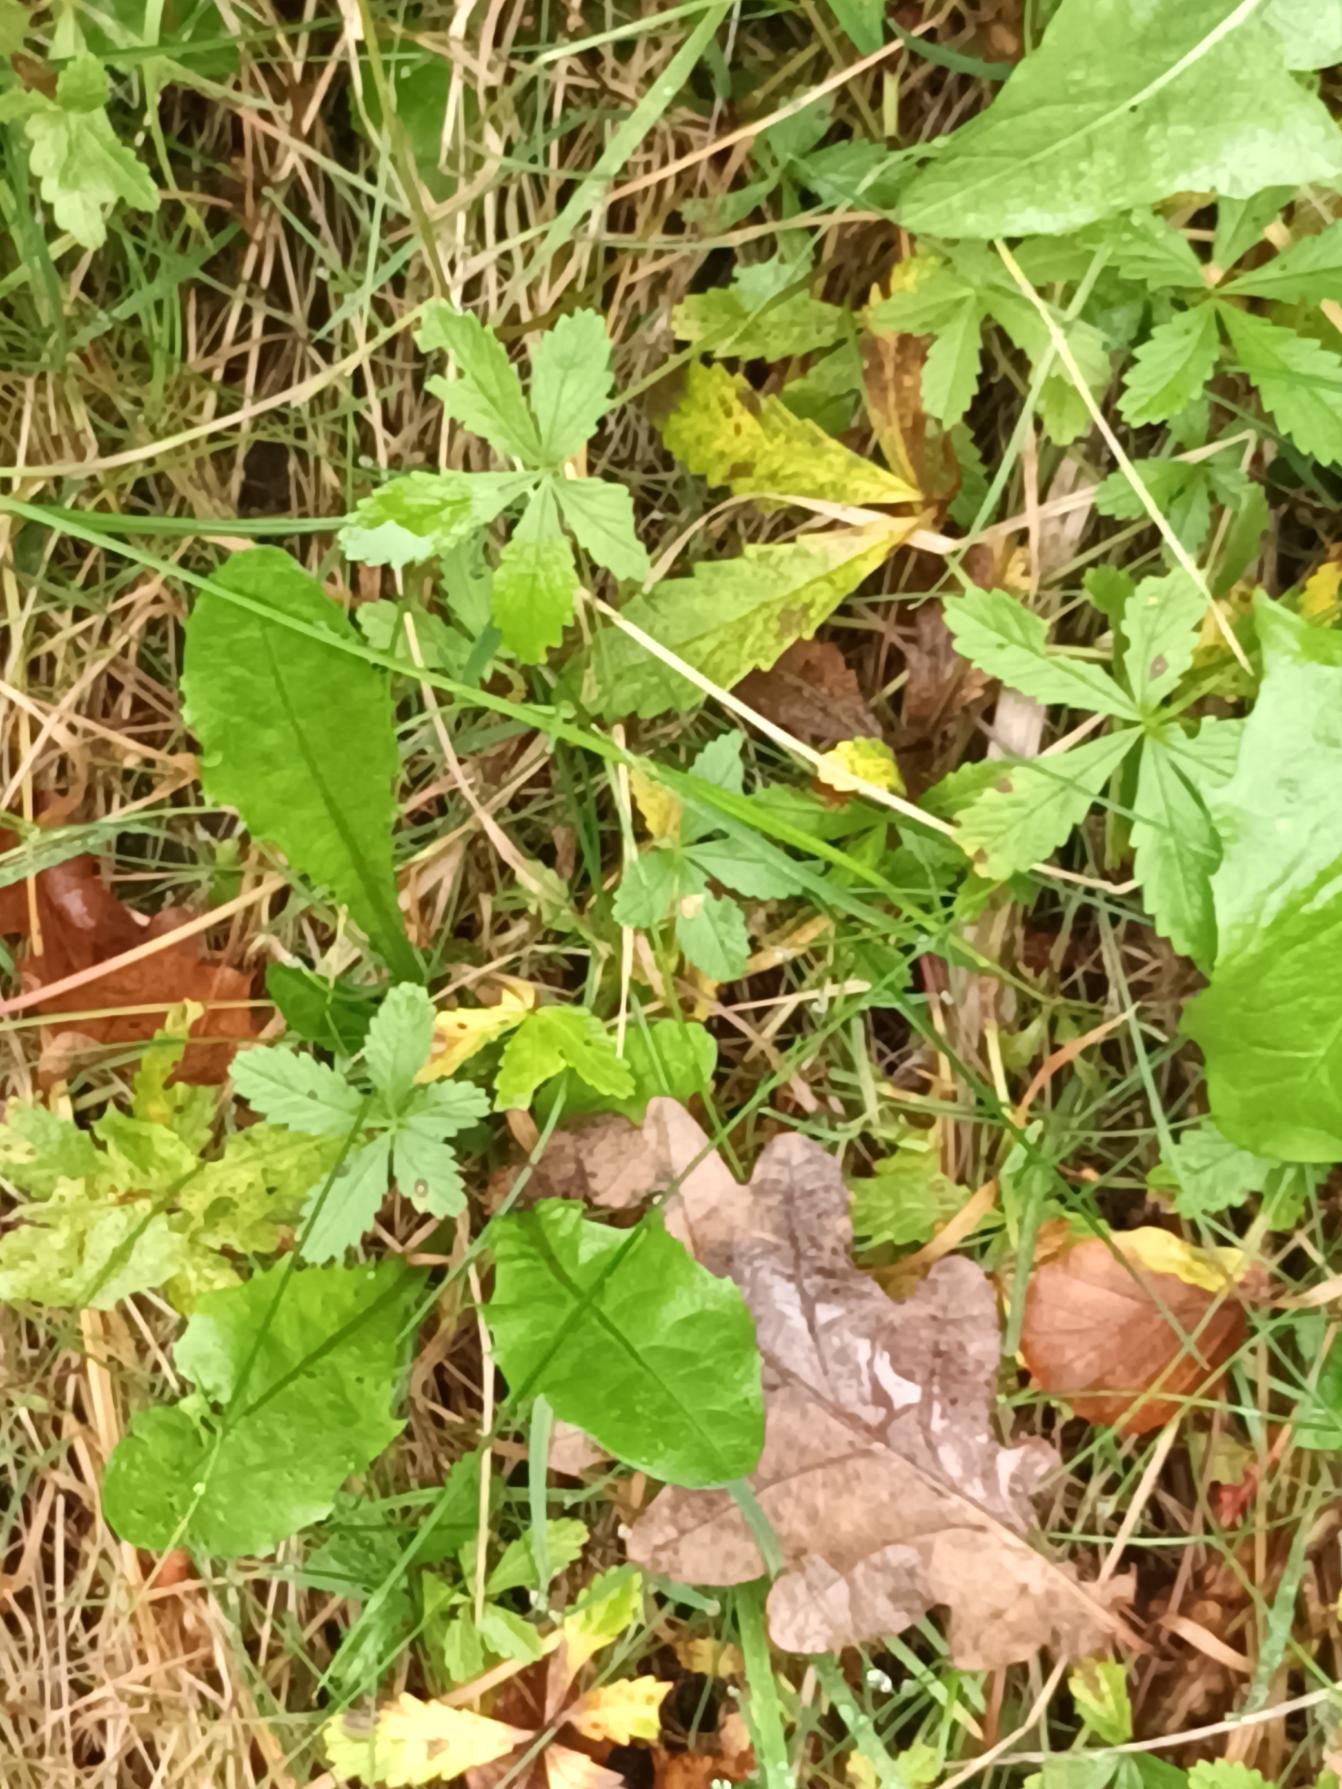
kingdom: Plantae
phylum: Tracheophyta
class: Magnoliopsida
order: Rosales
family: Rosaceae
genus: Potentilla
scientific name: Potentilla reptans
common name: Krybende potentil
